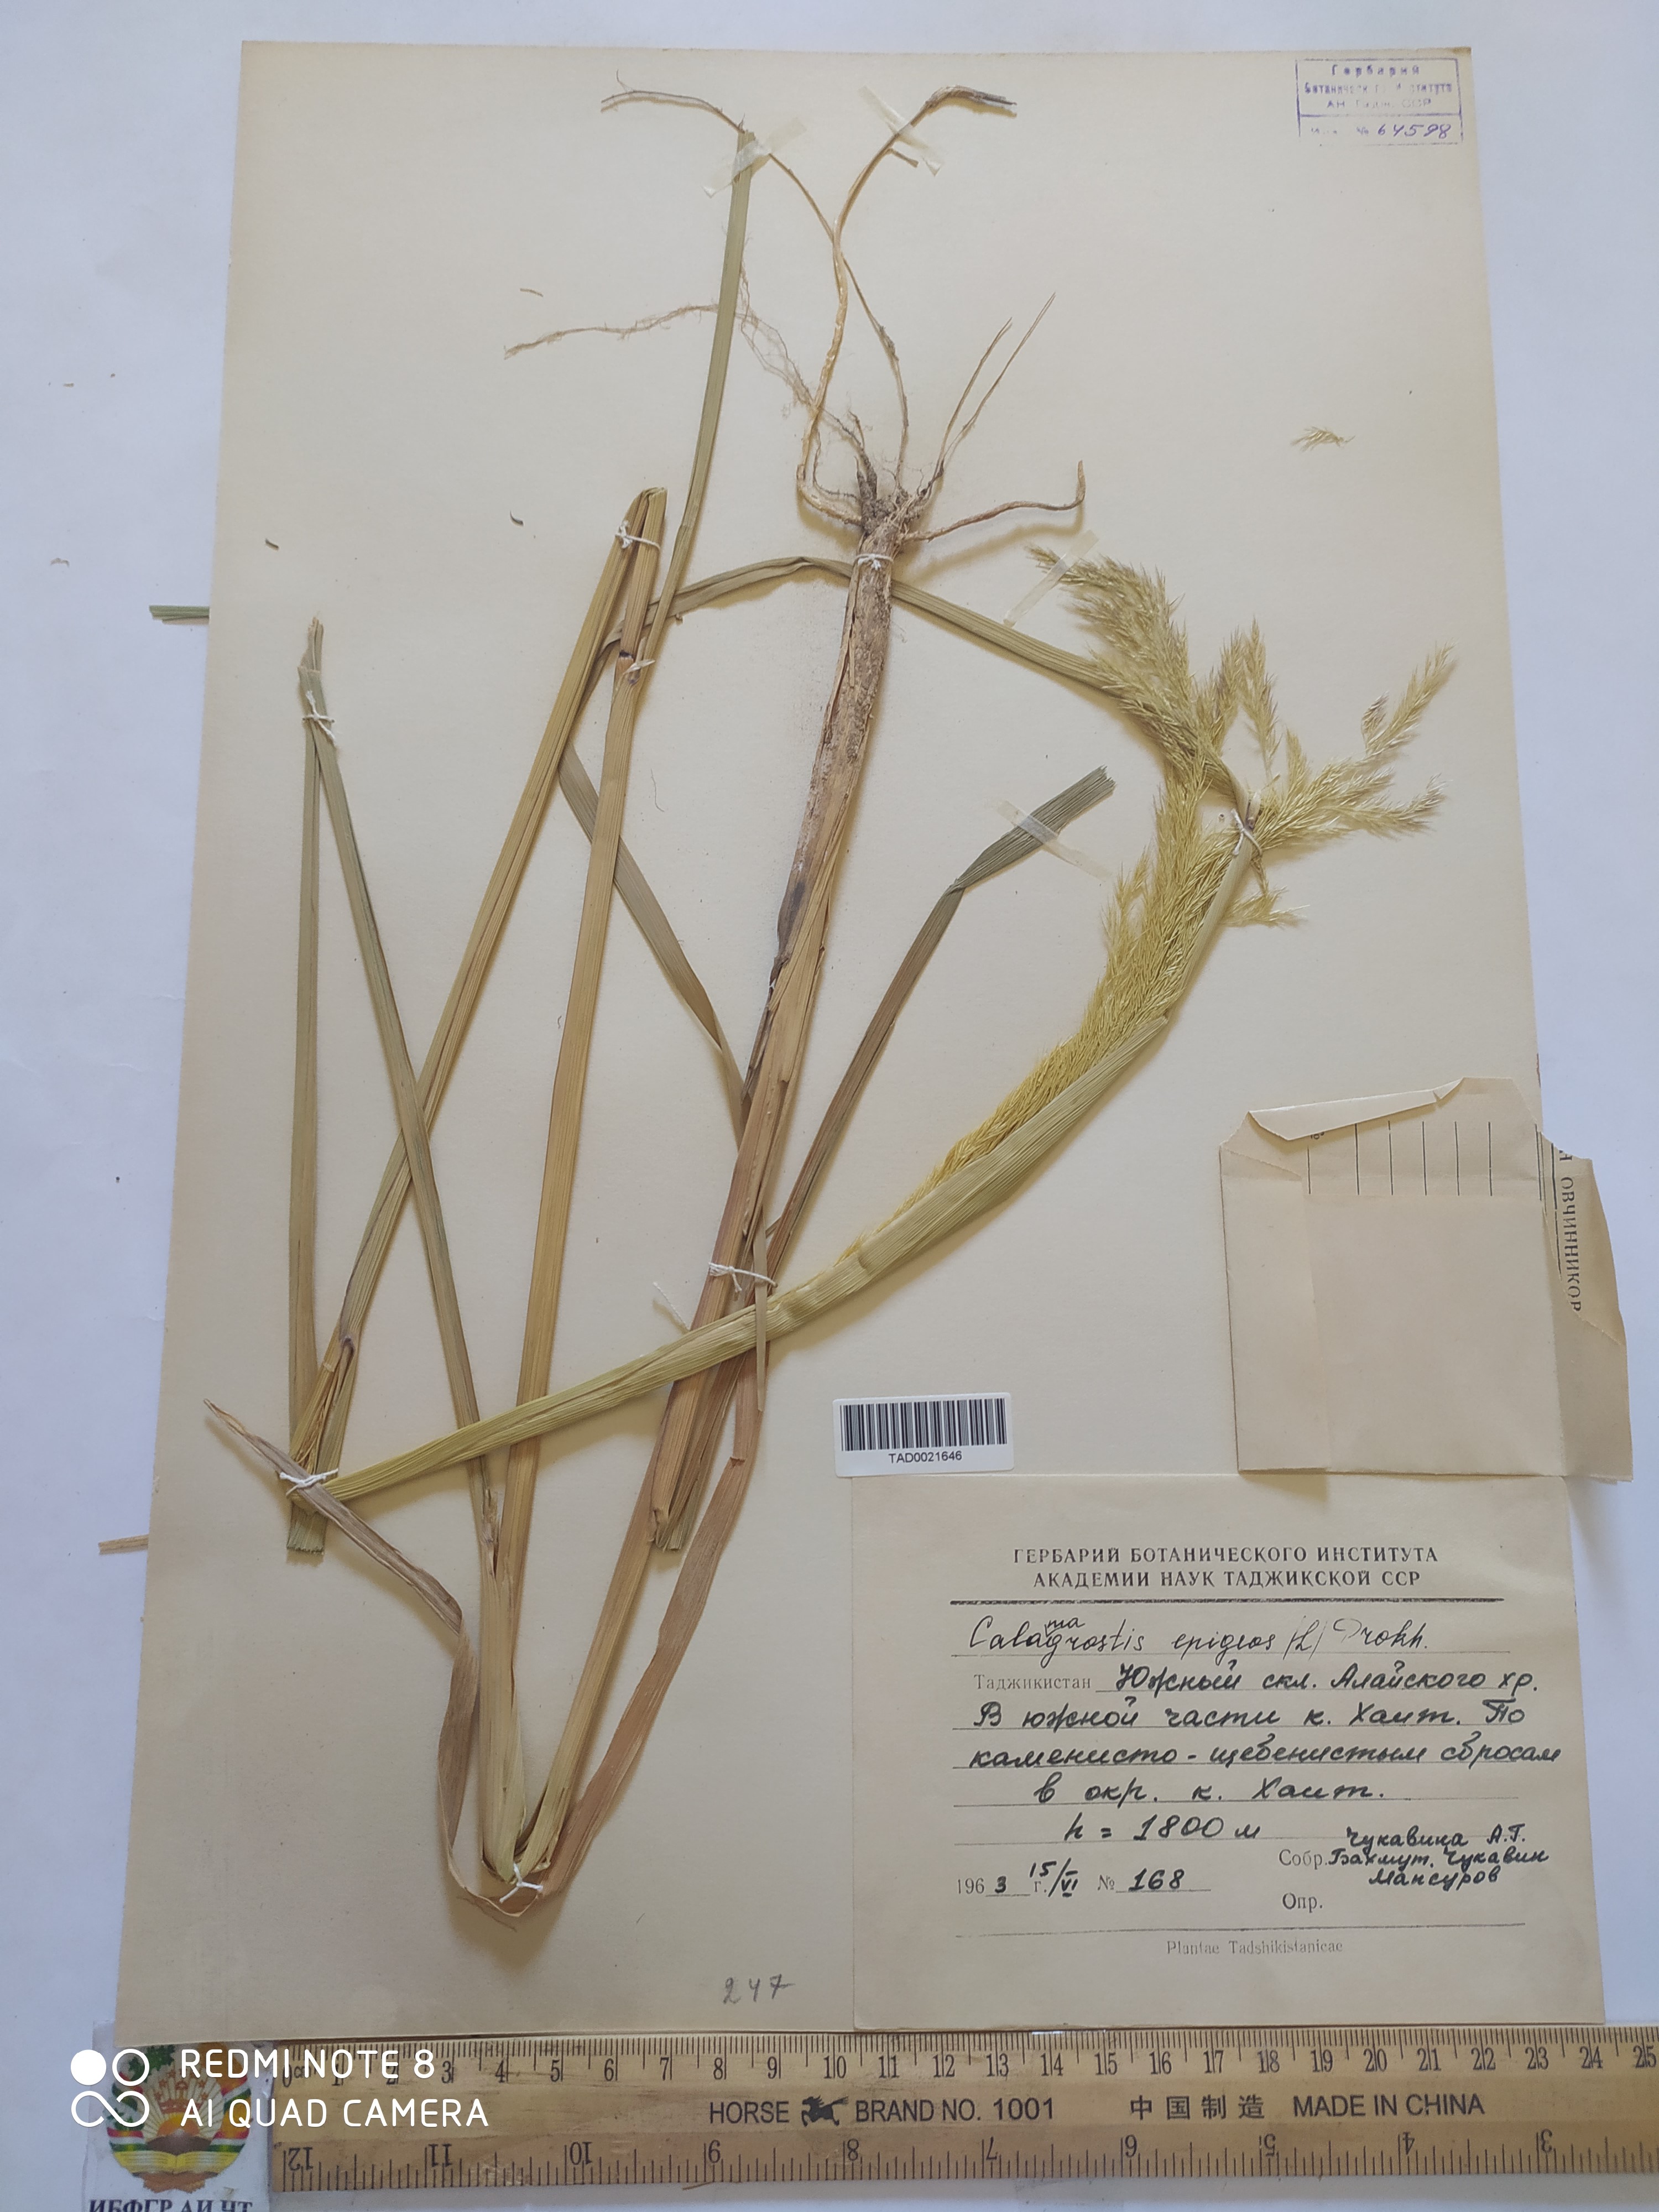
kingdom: Plantae
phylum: Tracheophyta
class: Liliopsida
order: Poales
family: Poaceae
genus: Calamagrostis
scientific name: Calamagrostis epigejos
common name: Wood small-reed
